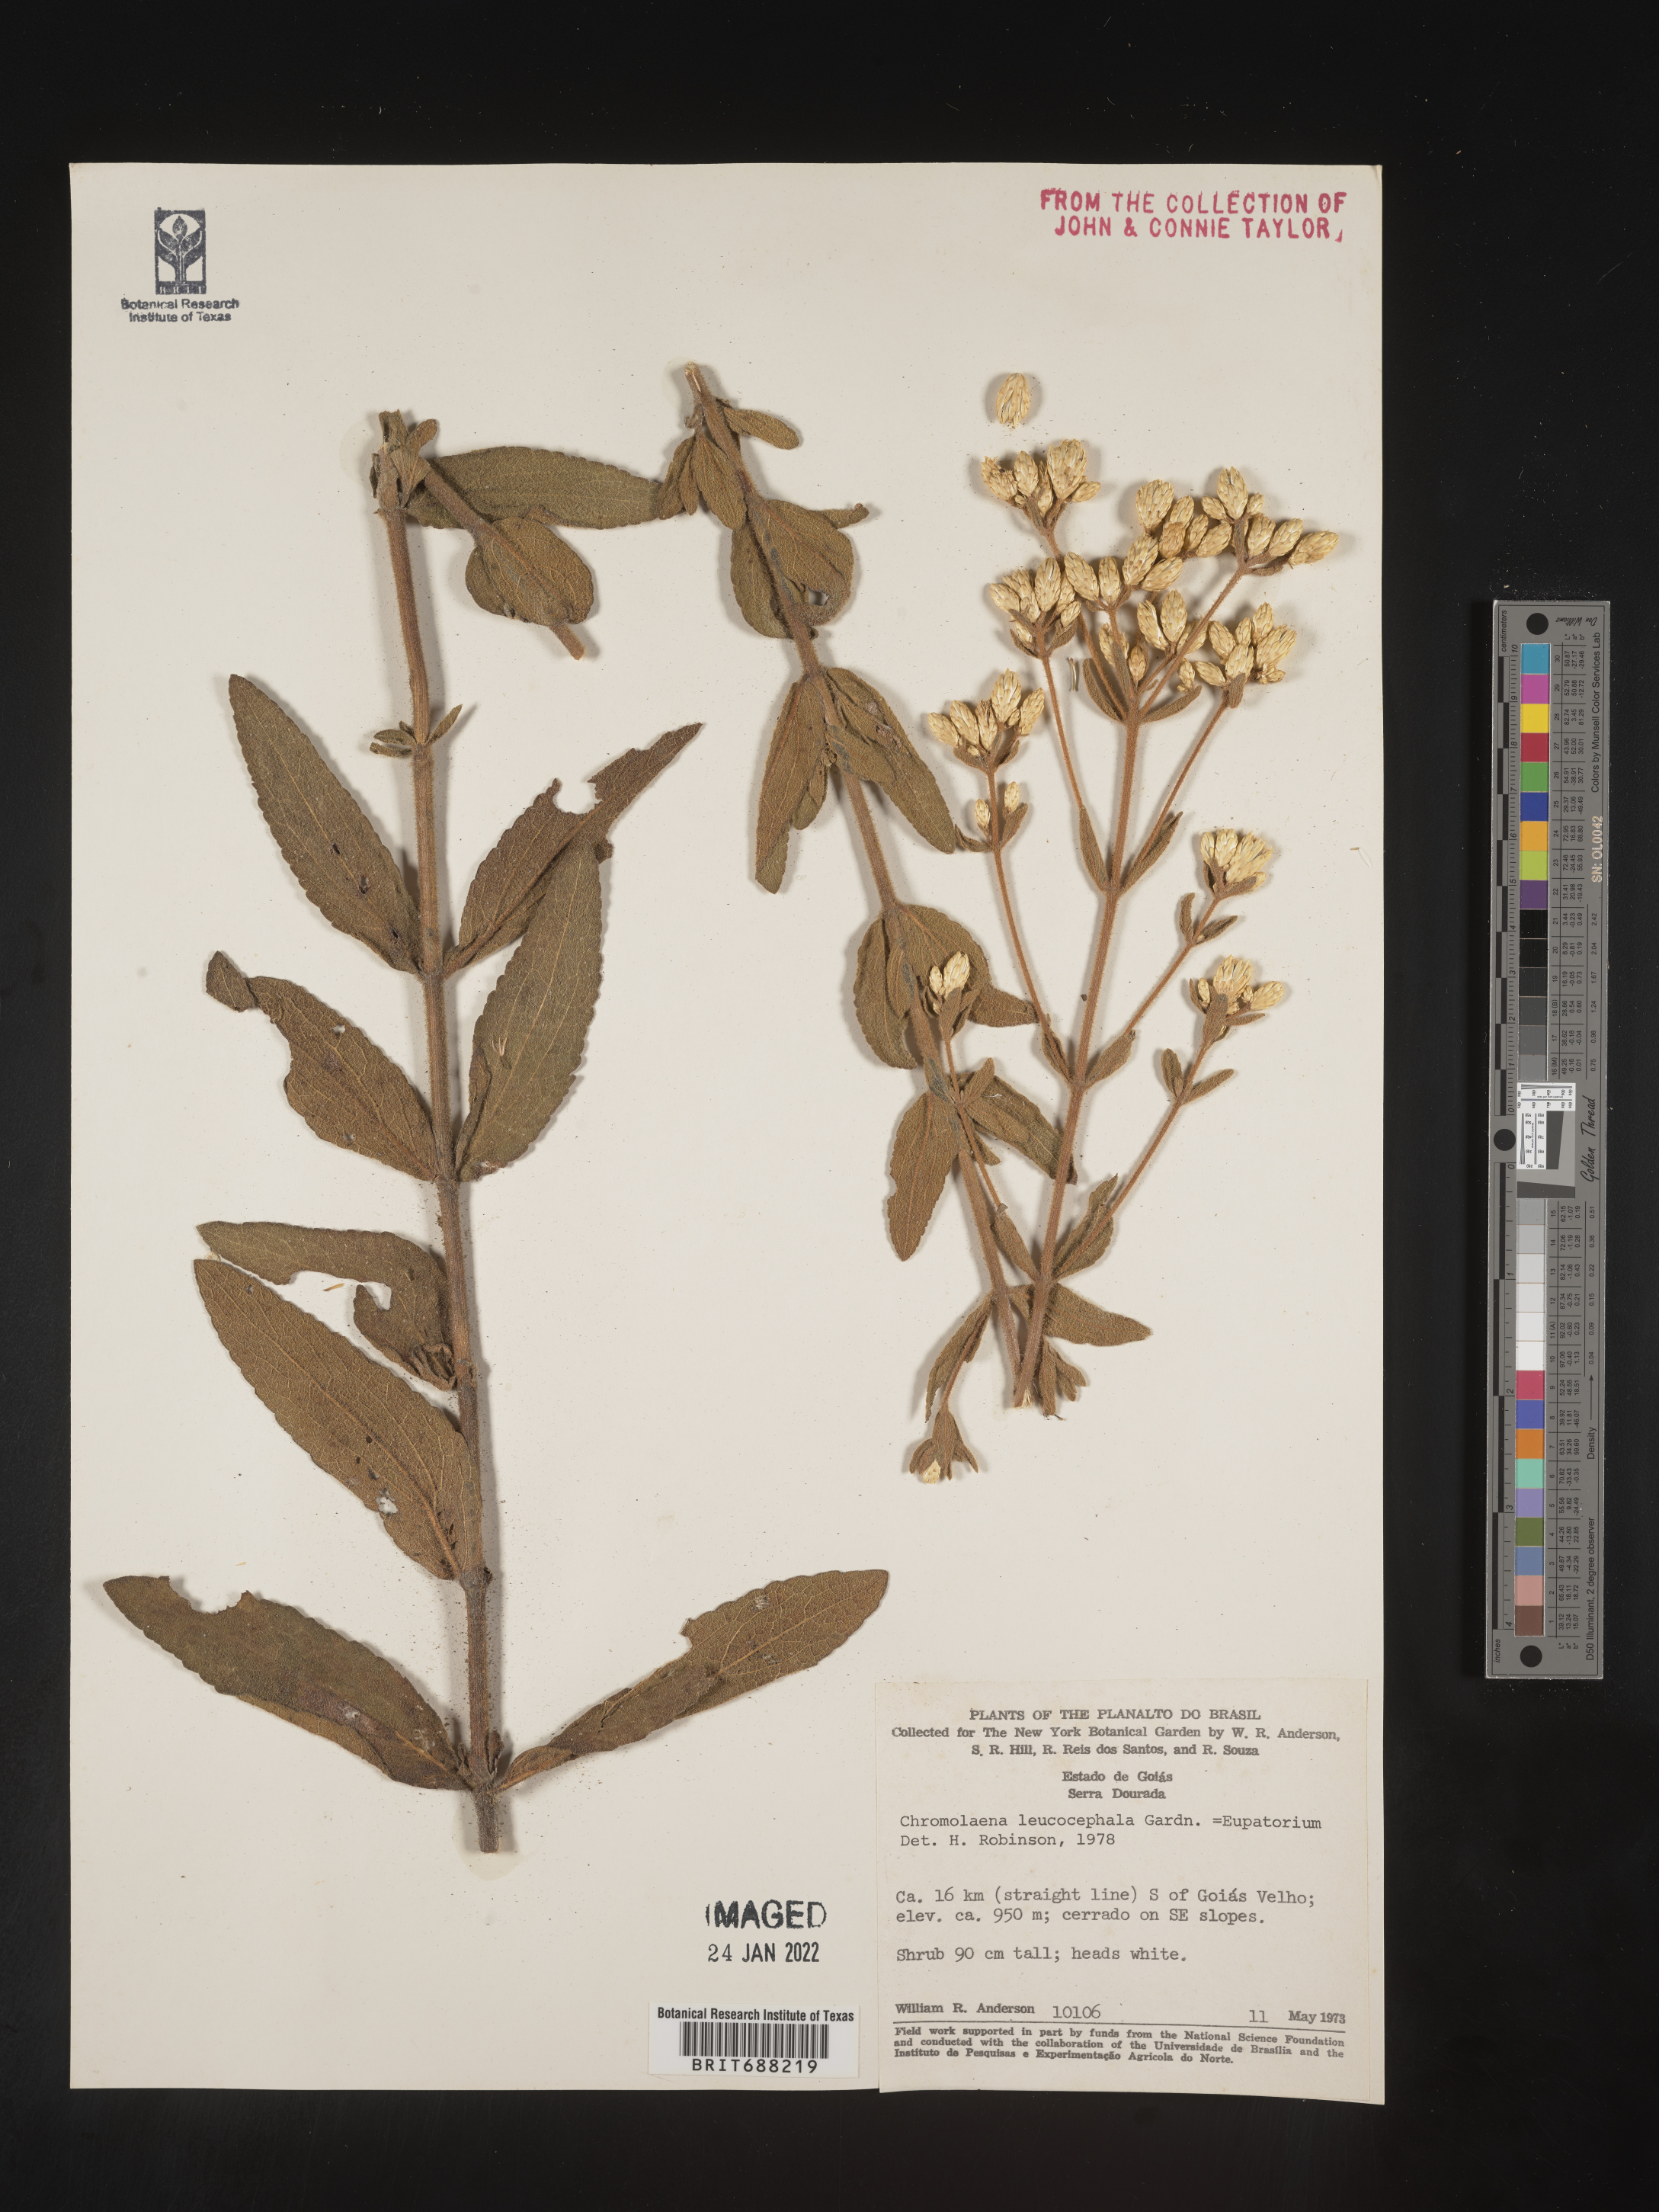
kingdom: Plantae
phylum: Tracheophyta
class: Magnoliopsida
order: Asterales
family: Asteraceae
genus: Chromolaena
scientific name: Chromolaena
